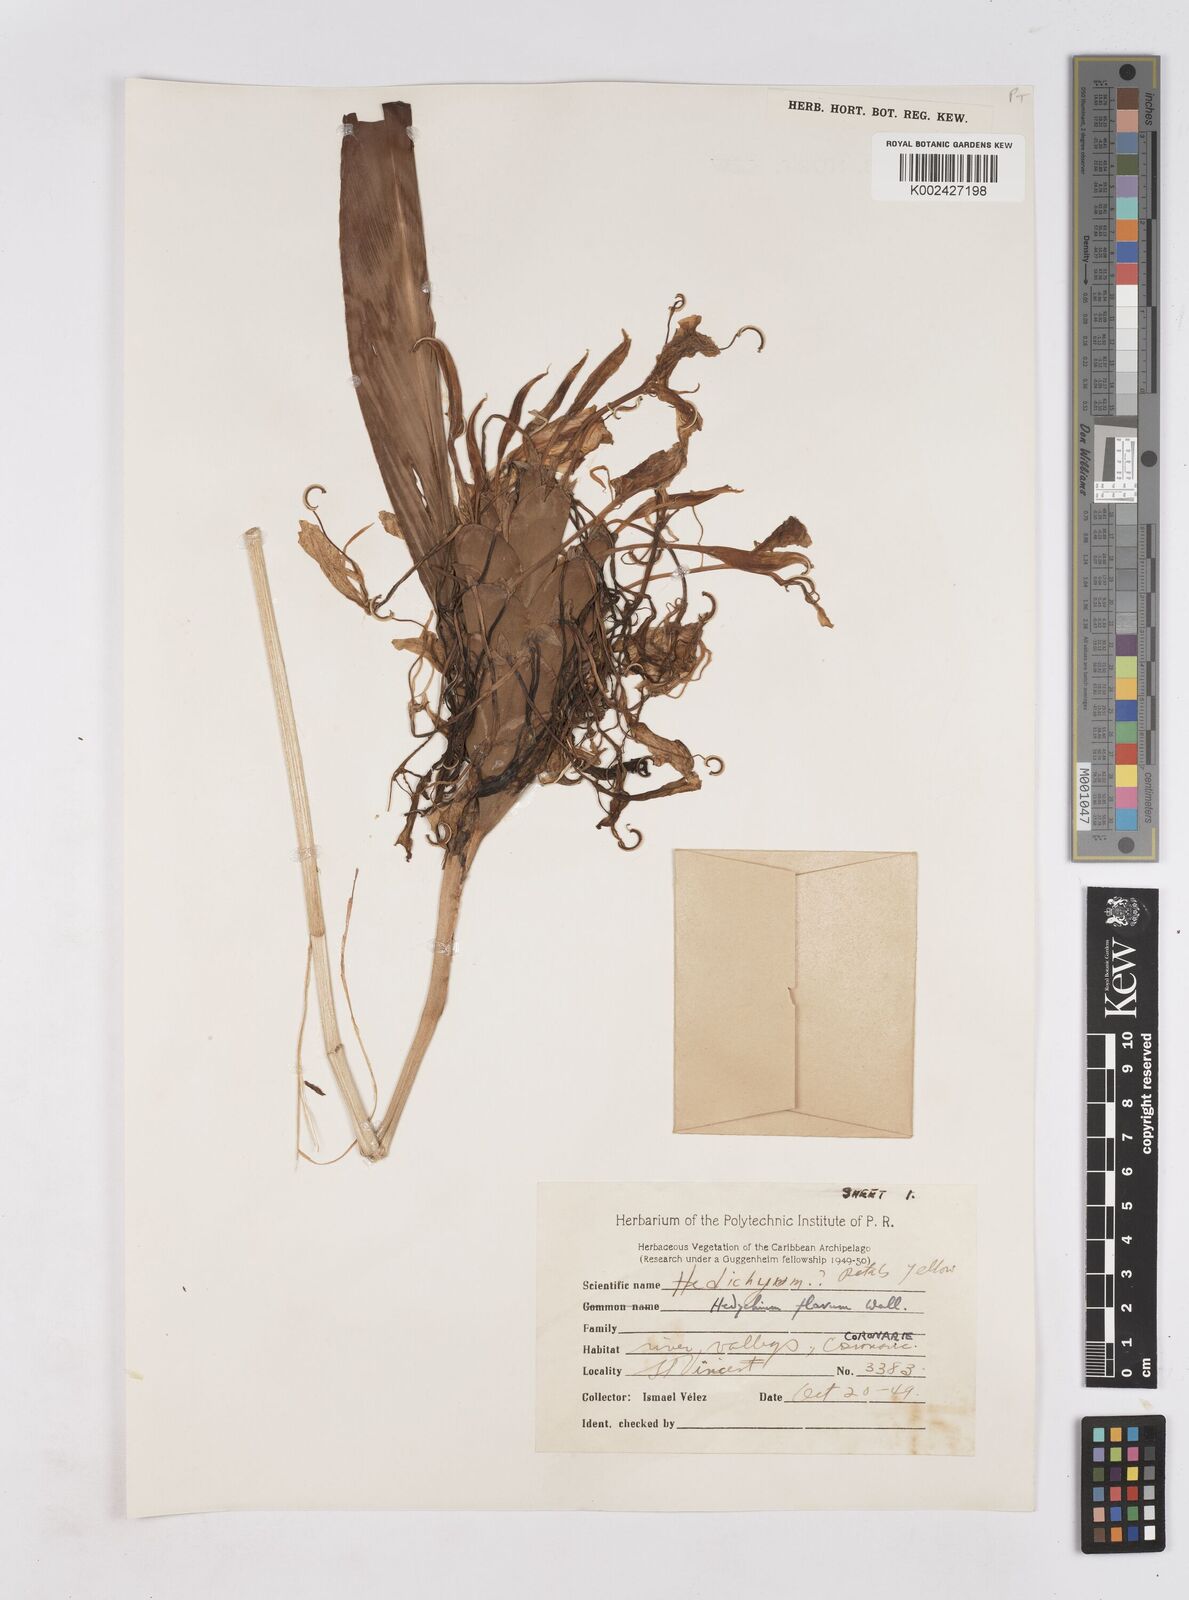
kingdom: Plantae
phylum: Tracheophyta
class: Liliopsida
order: Zingiberales
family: Zingiberaceae
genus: Hedychium
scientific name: Hedychium flavum
